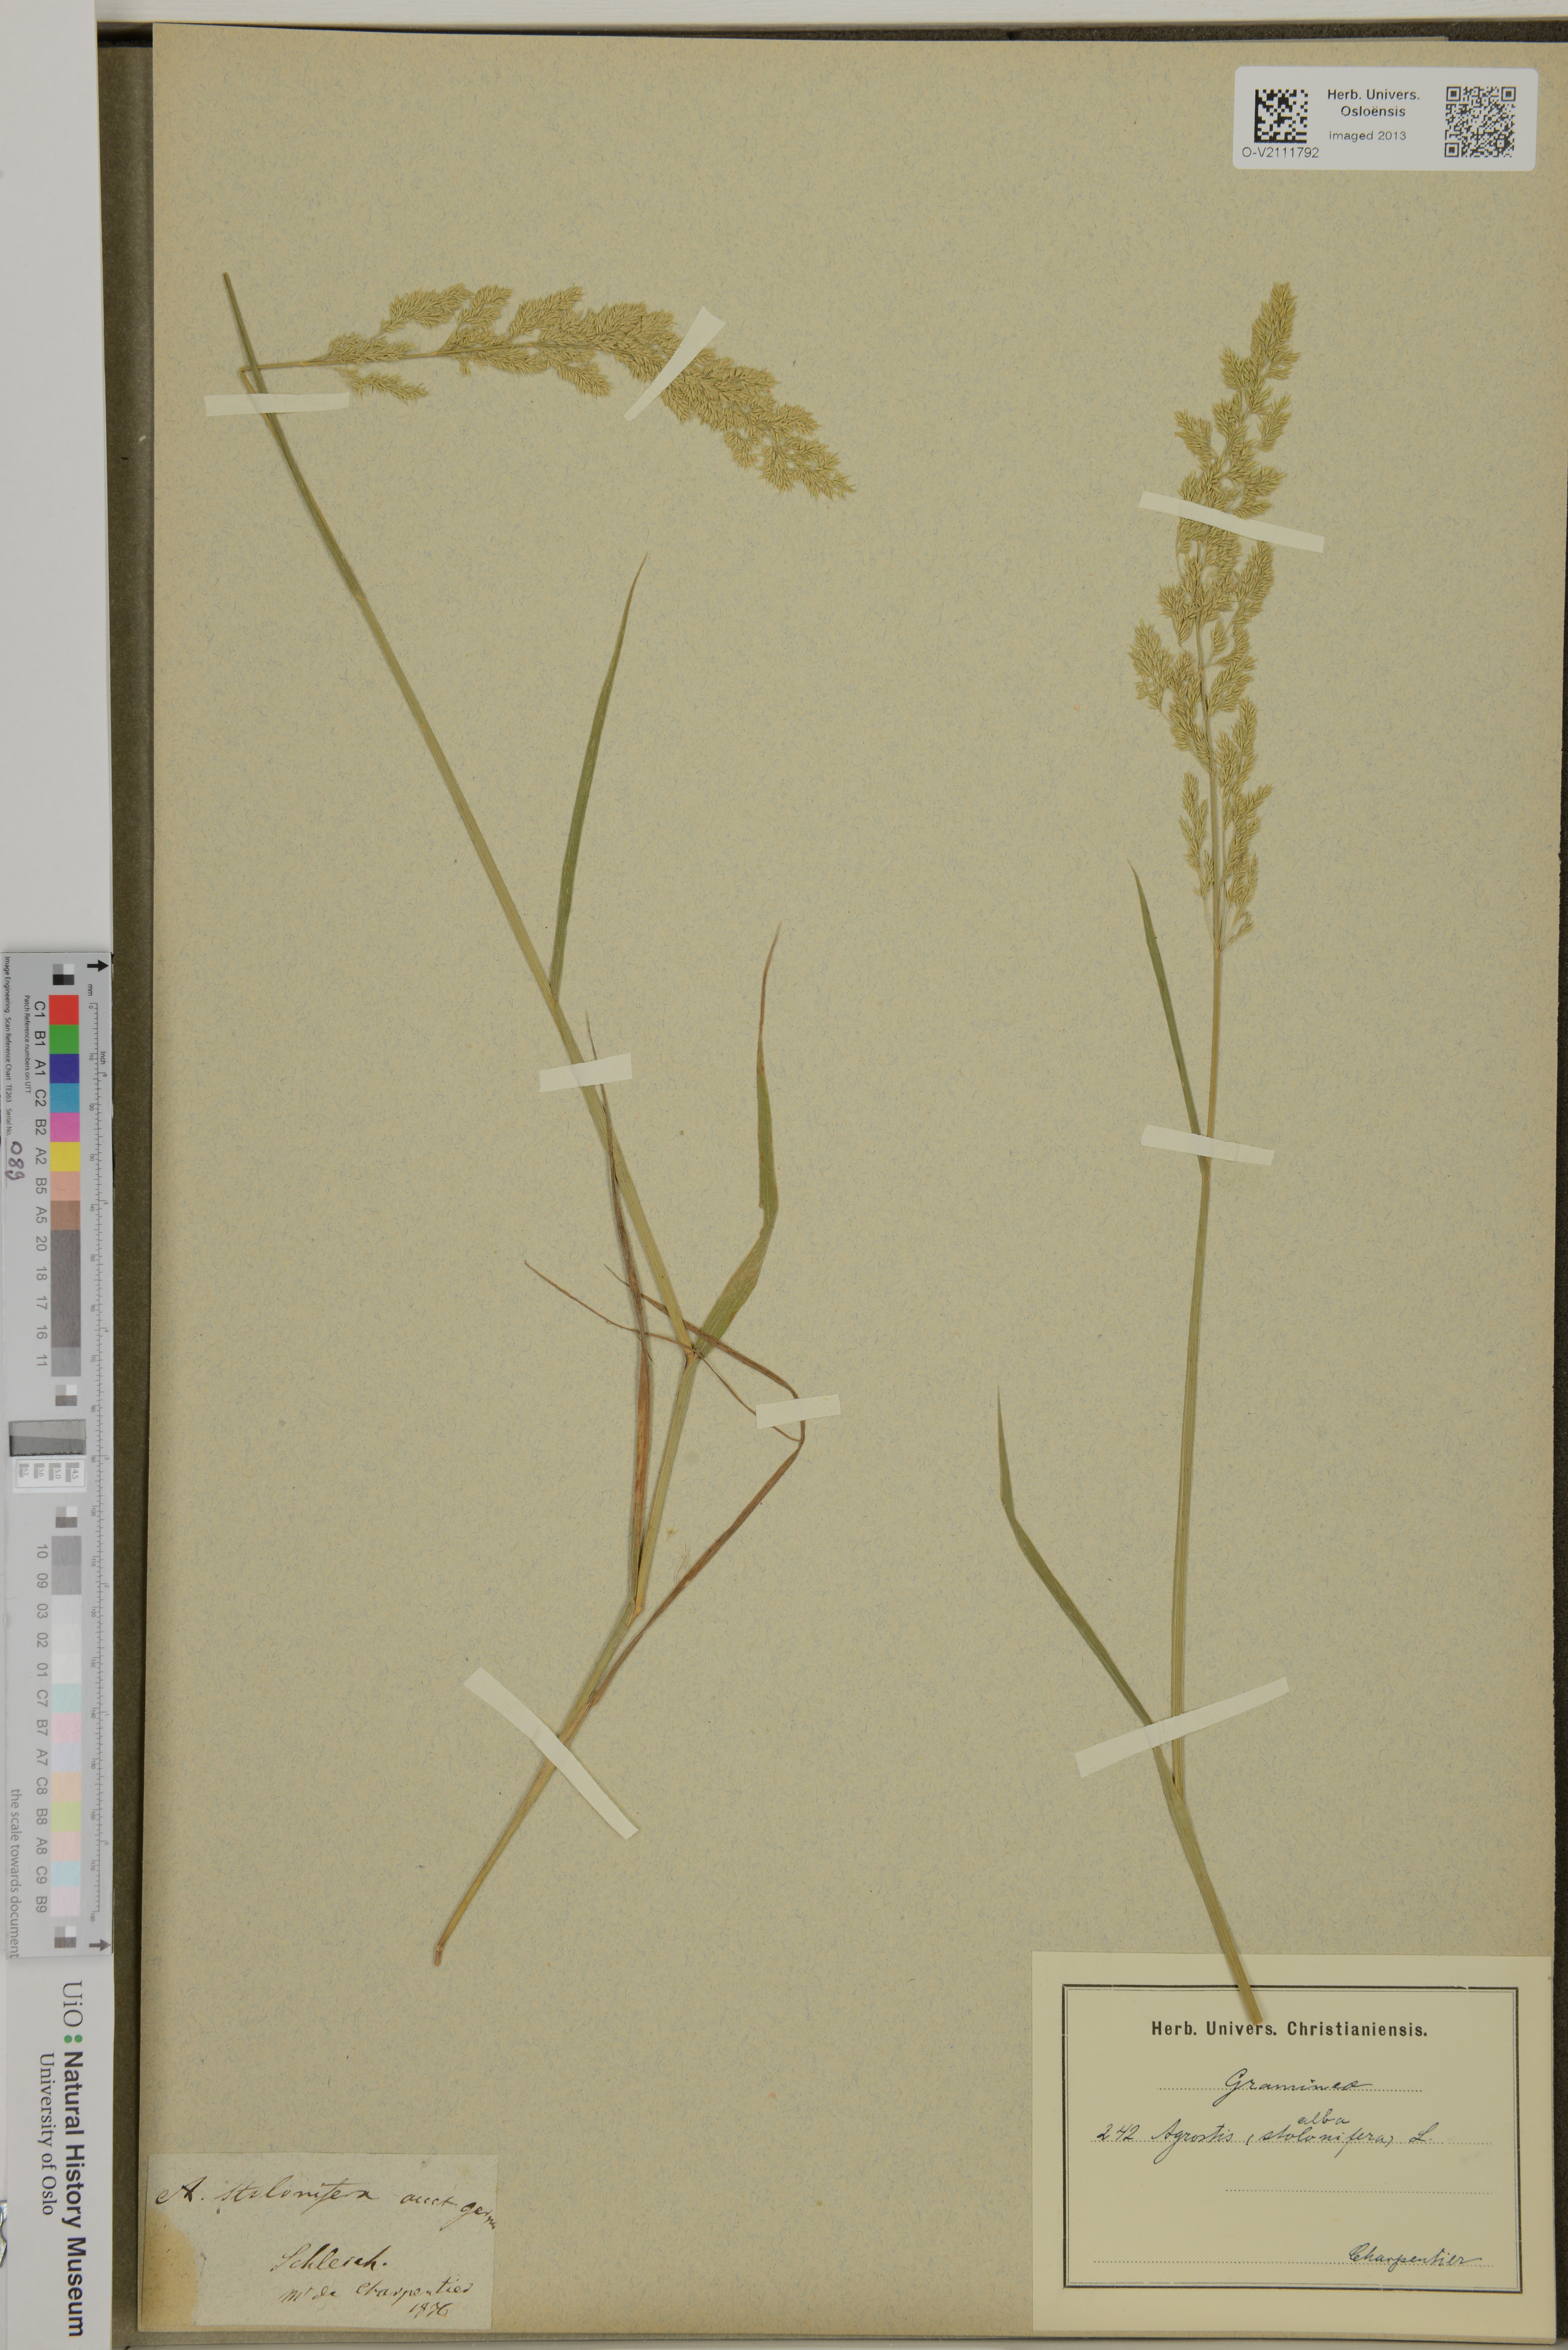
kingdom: Plantae
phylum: Tracheophyta
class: Liliopsida
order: Poales
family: Poaceae
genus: Agrostis
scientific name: Agrostis alba
